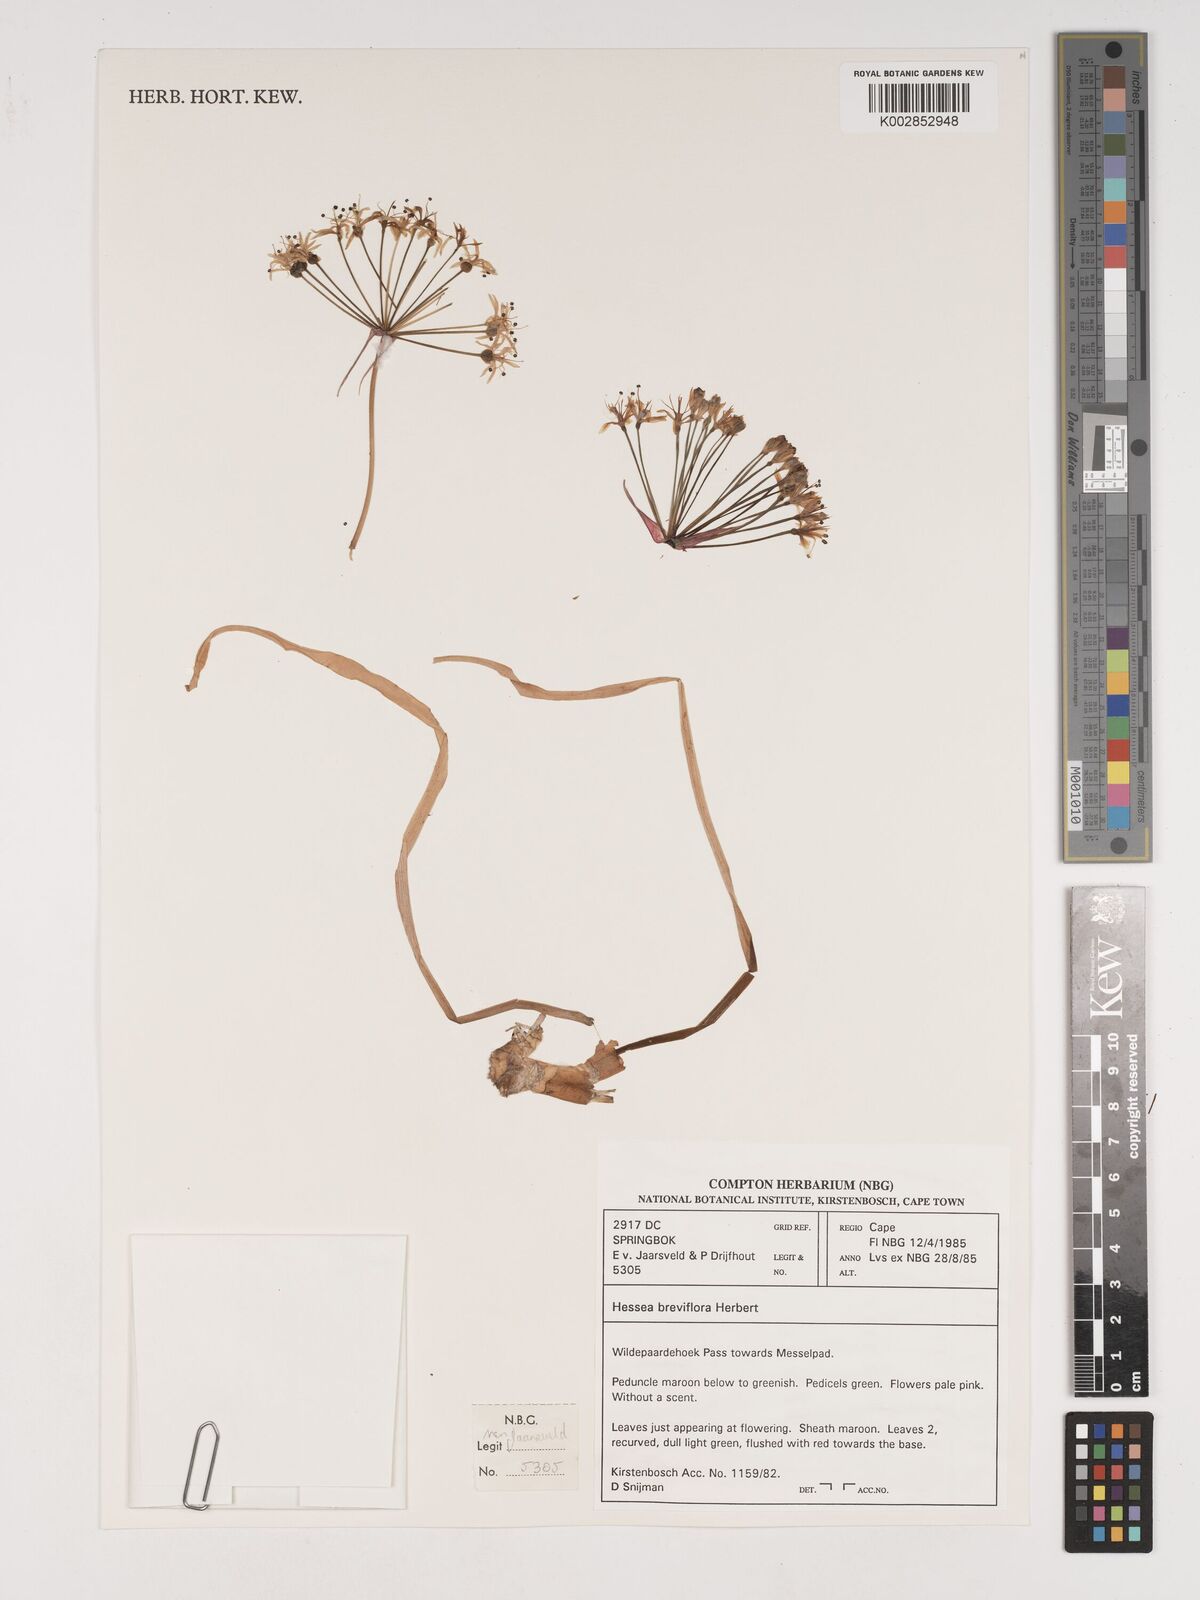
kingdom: Plantae
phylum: Tracheophyta
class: Liliopsida
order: Asparagales
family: Amaryllidaceae
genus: Hessea
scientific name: Hessea breviflora
